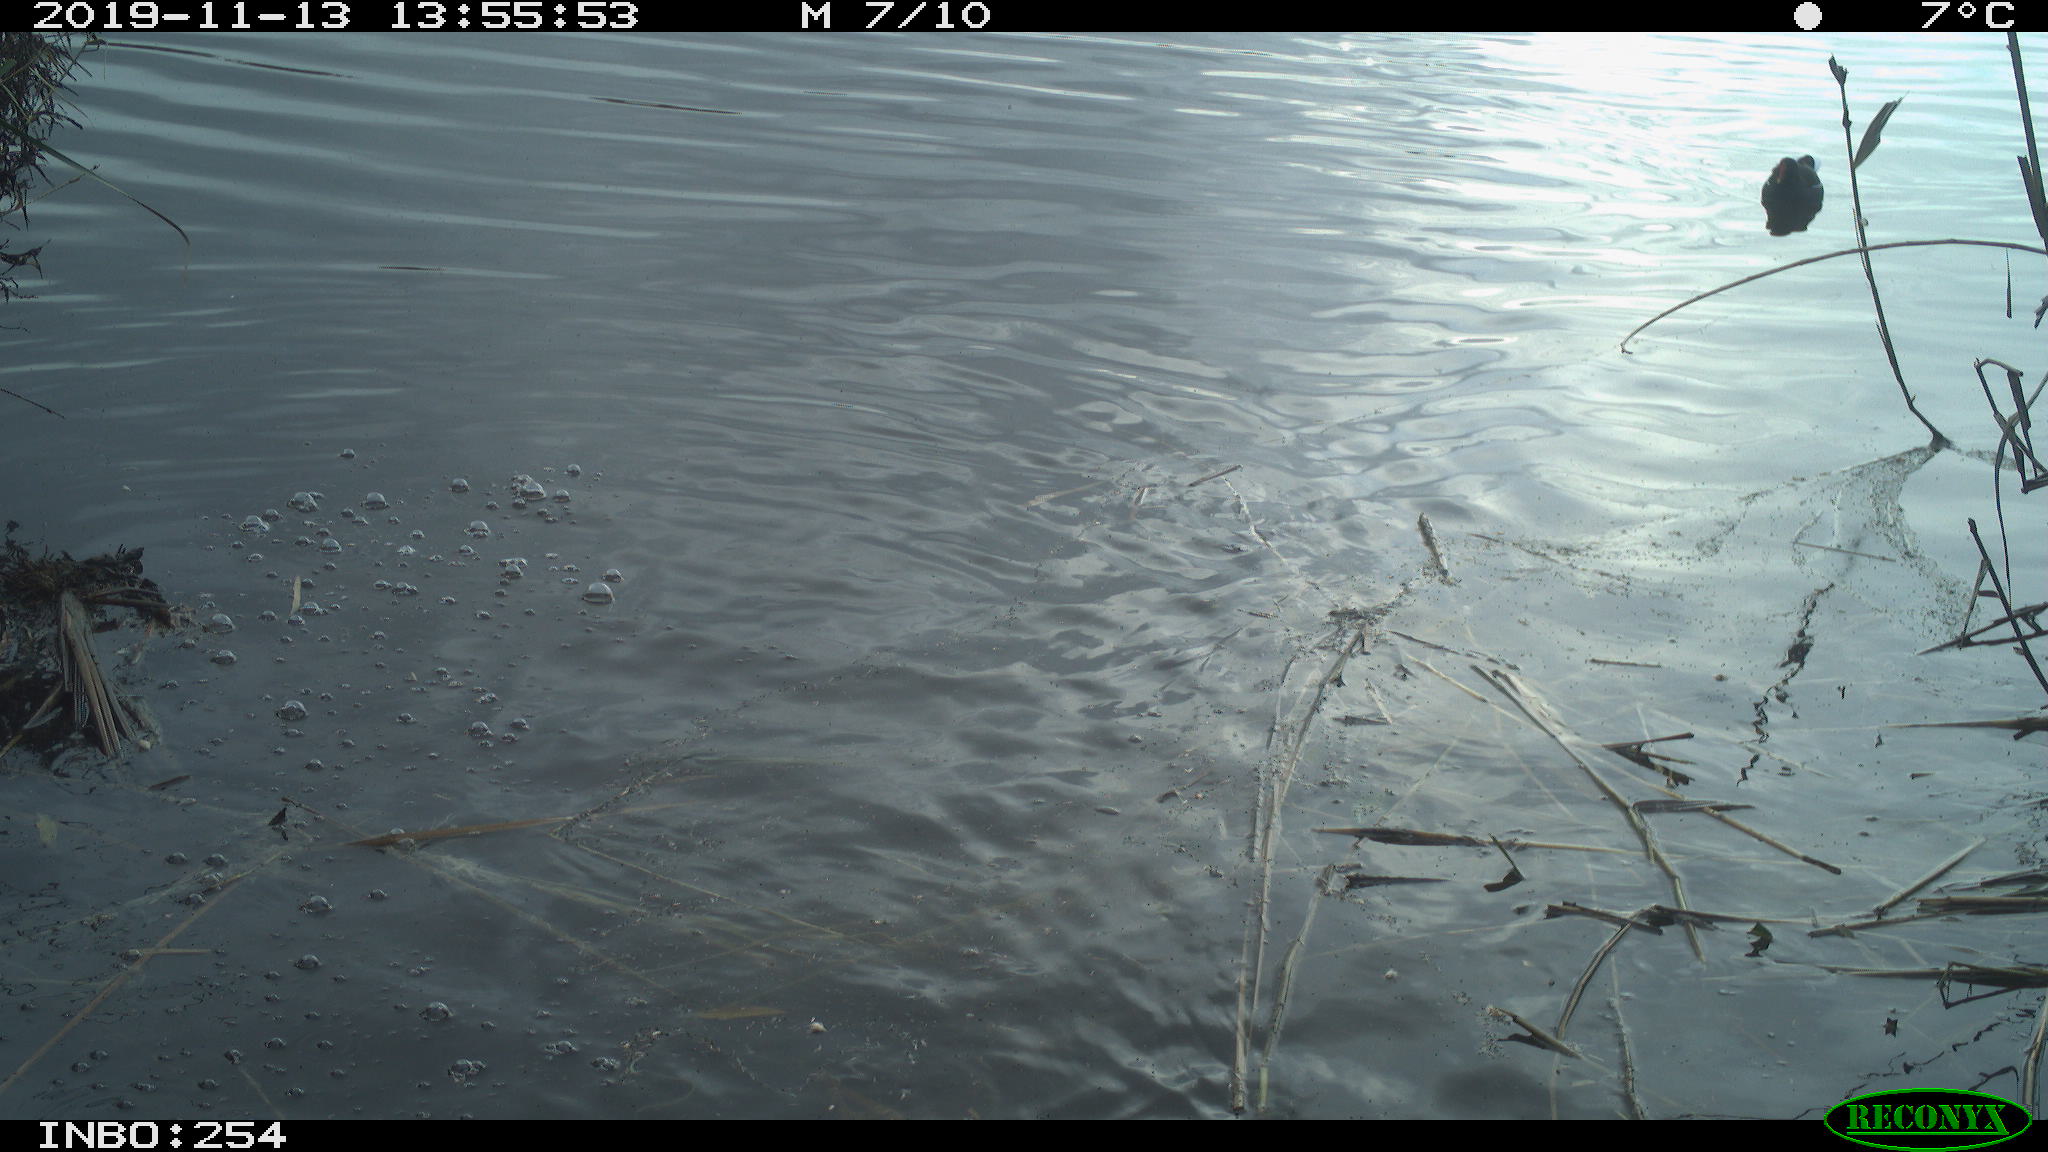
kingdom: Animalia
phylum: Chordata
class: Aves
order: Gruiformes
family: Rallidae
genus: Gallinula
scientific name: Gallinula chloropus
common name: Common moorhen
